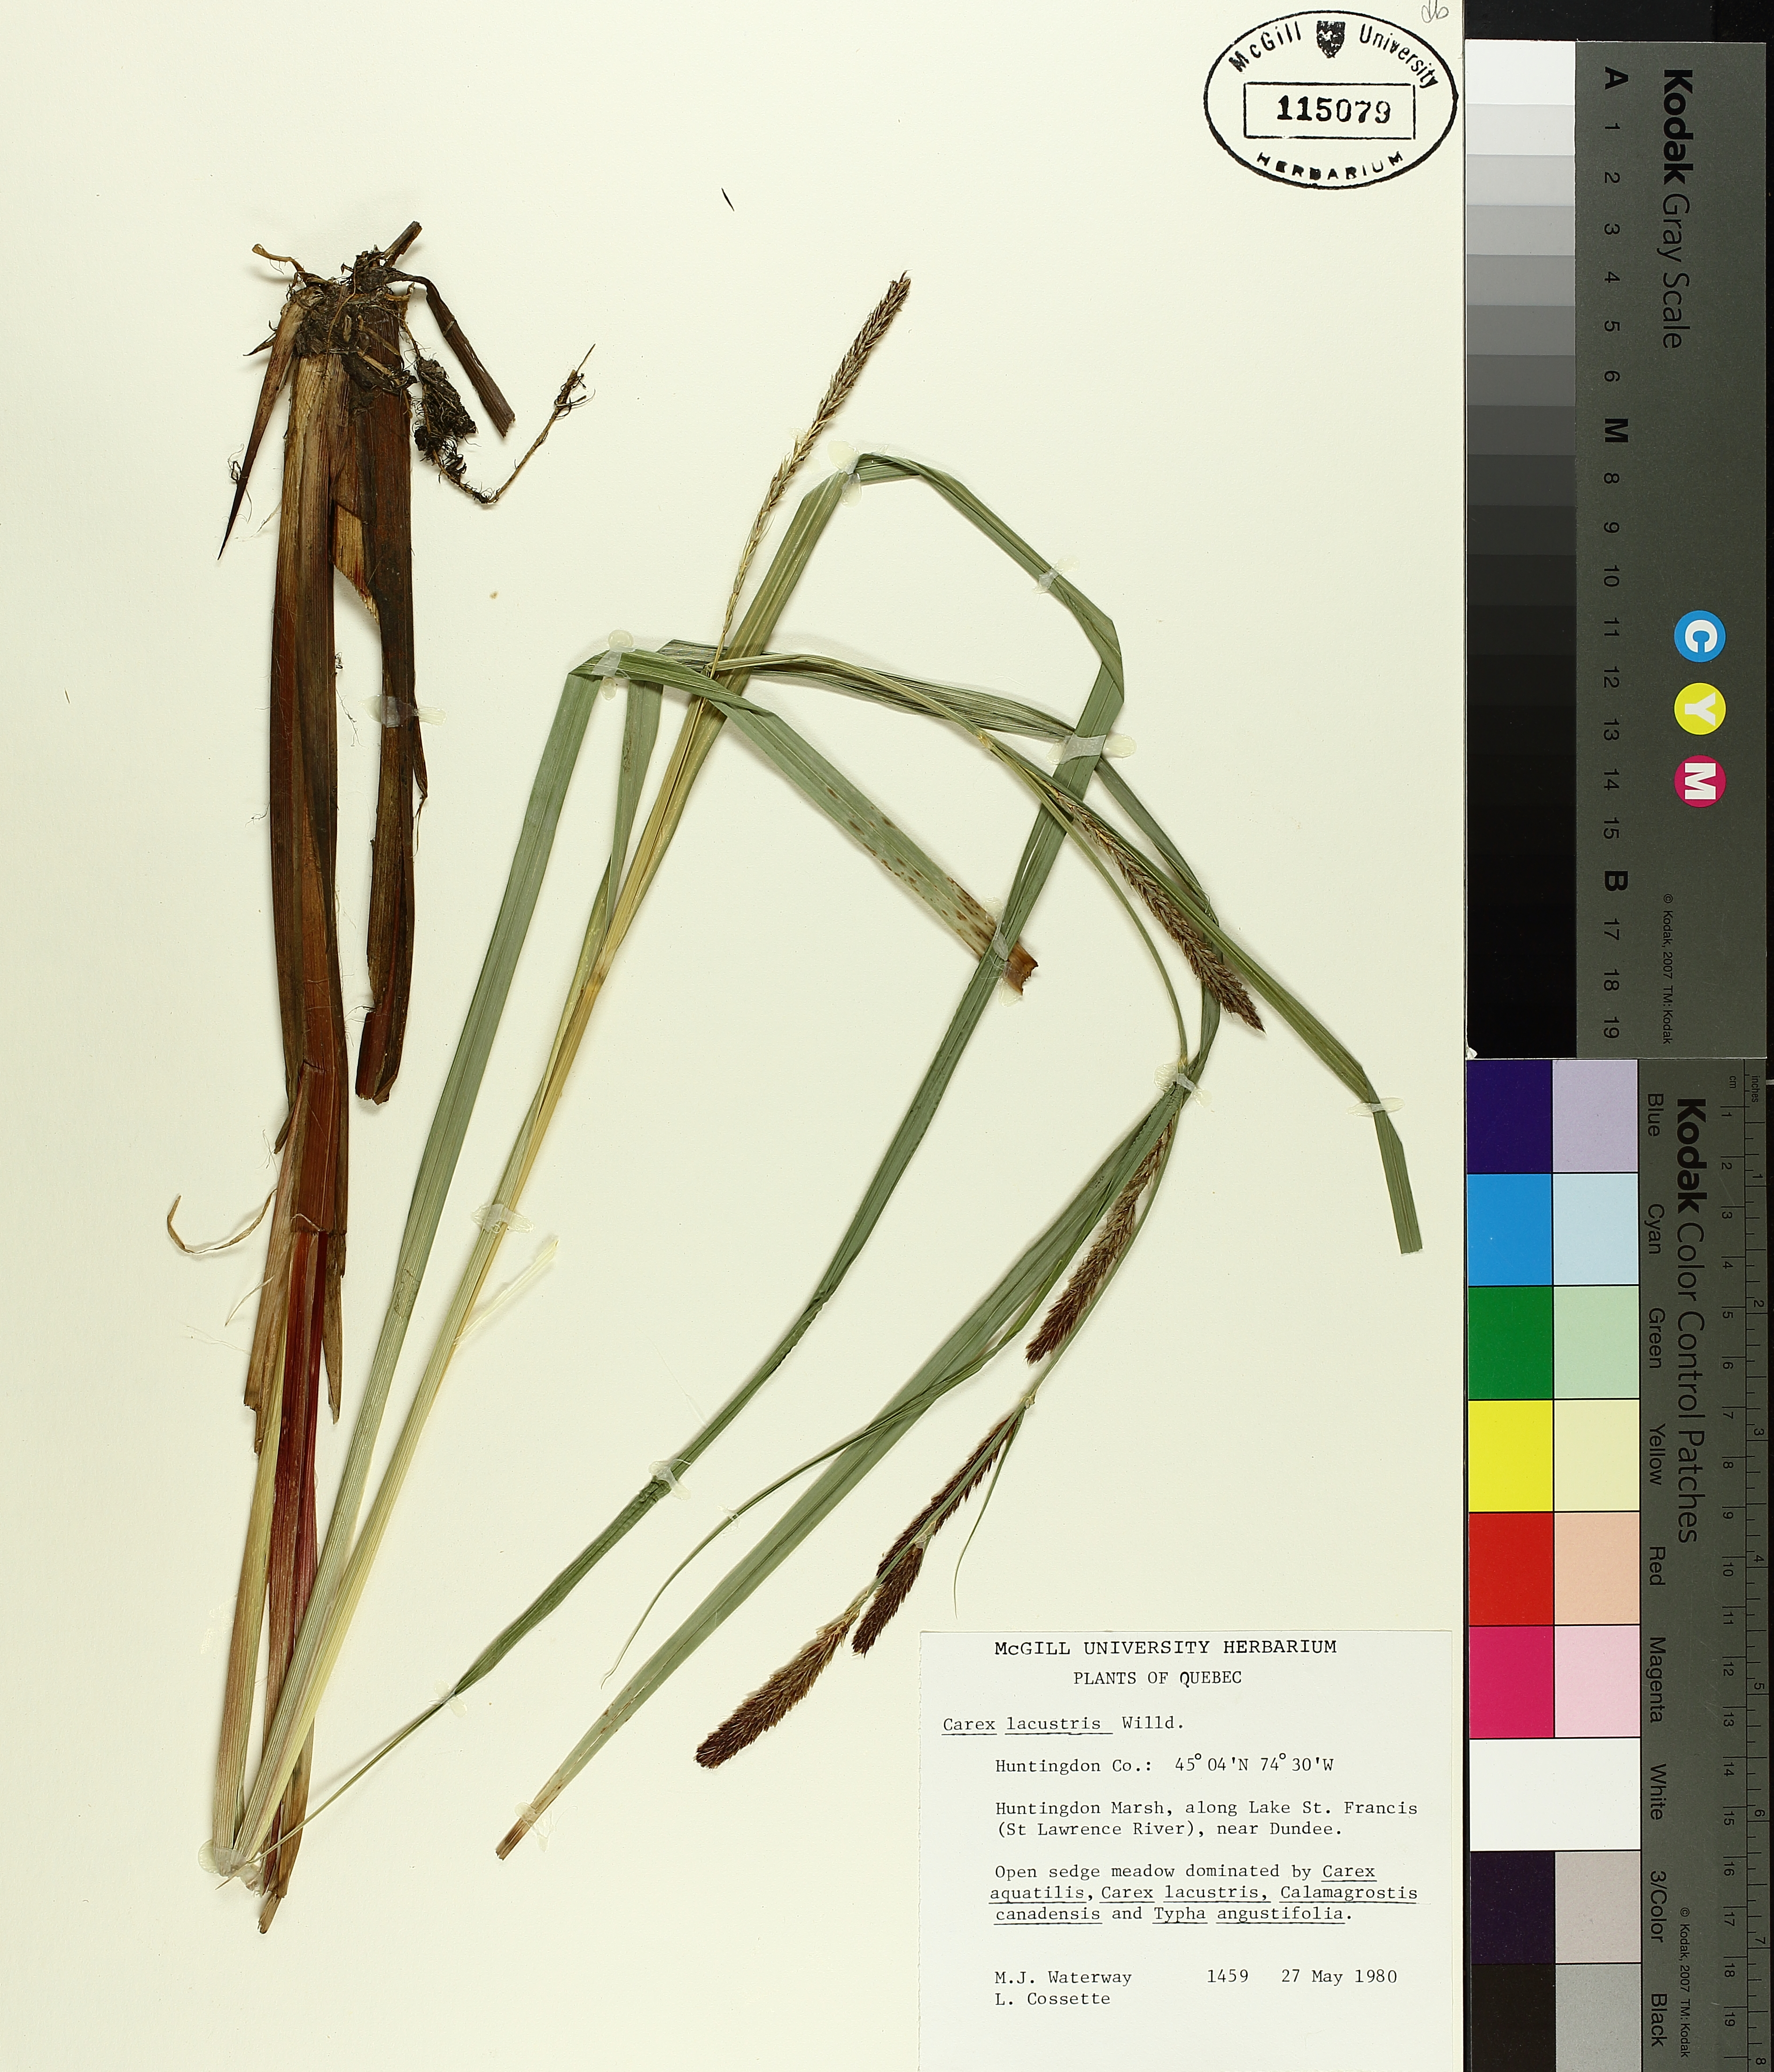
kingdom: Plantae
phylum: Tracheophyta
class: Liliopsida
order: Poales
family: Cyperaceae
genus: Carex
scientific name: Carex lacustris
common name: Common lake sedge
